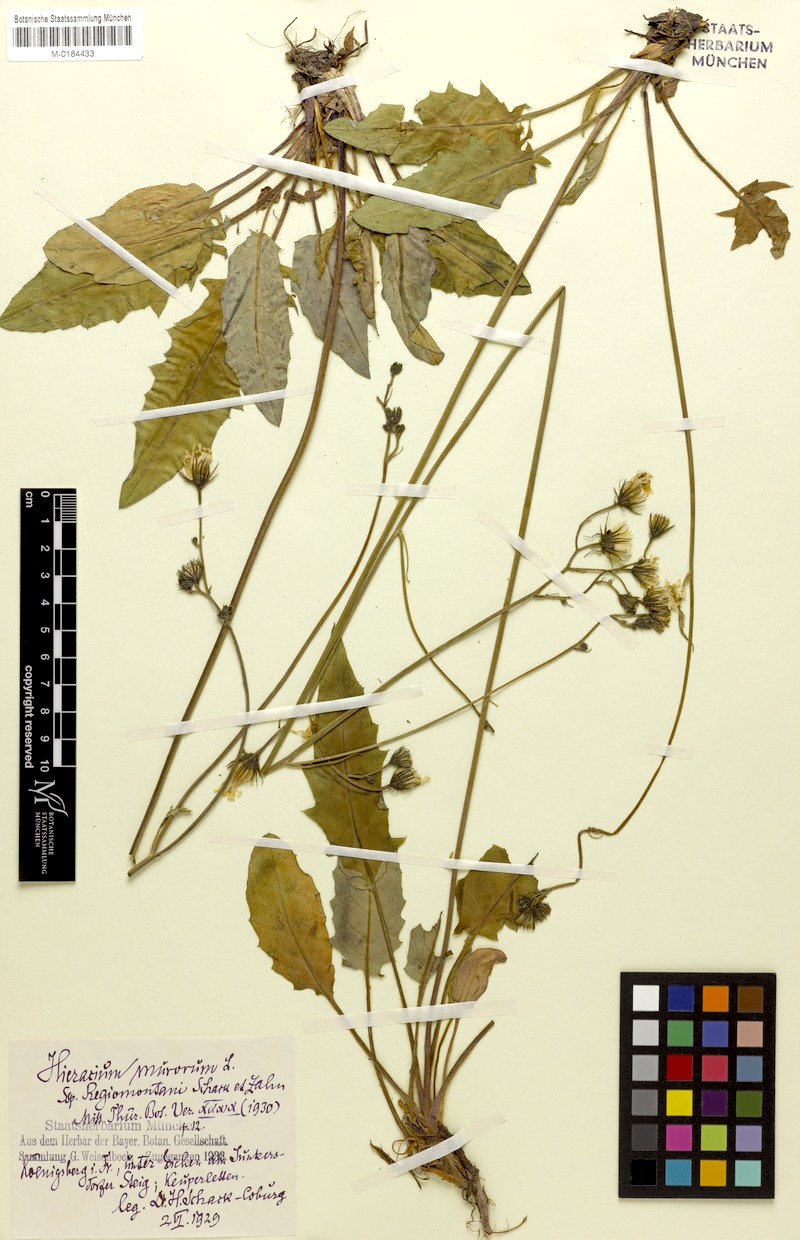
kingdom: Plantae
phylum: Tracheophyta
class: Magnoliopsida
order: Asterales
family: Asteraceae
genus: Hieracium
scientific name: Hieracium murorum
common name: Wall hawkweed
